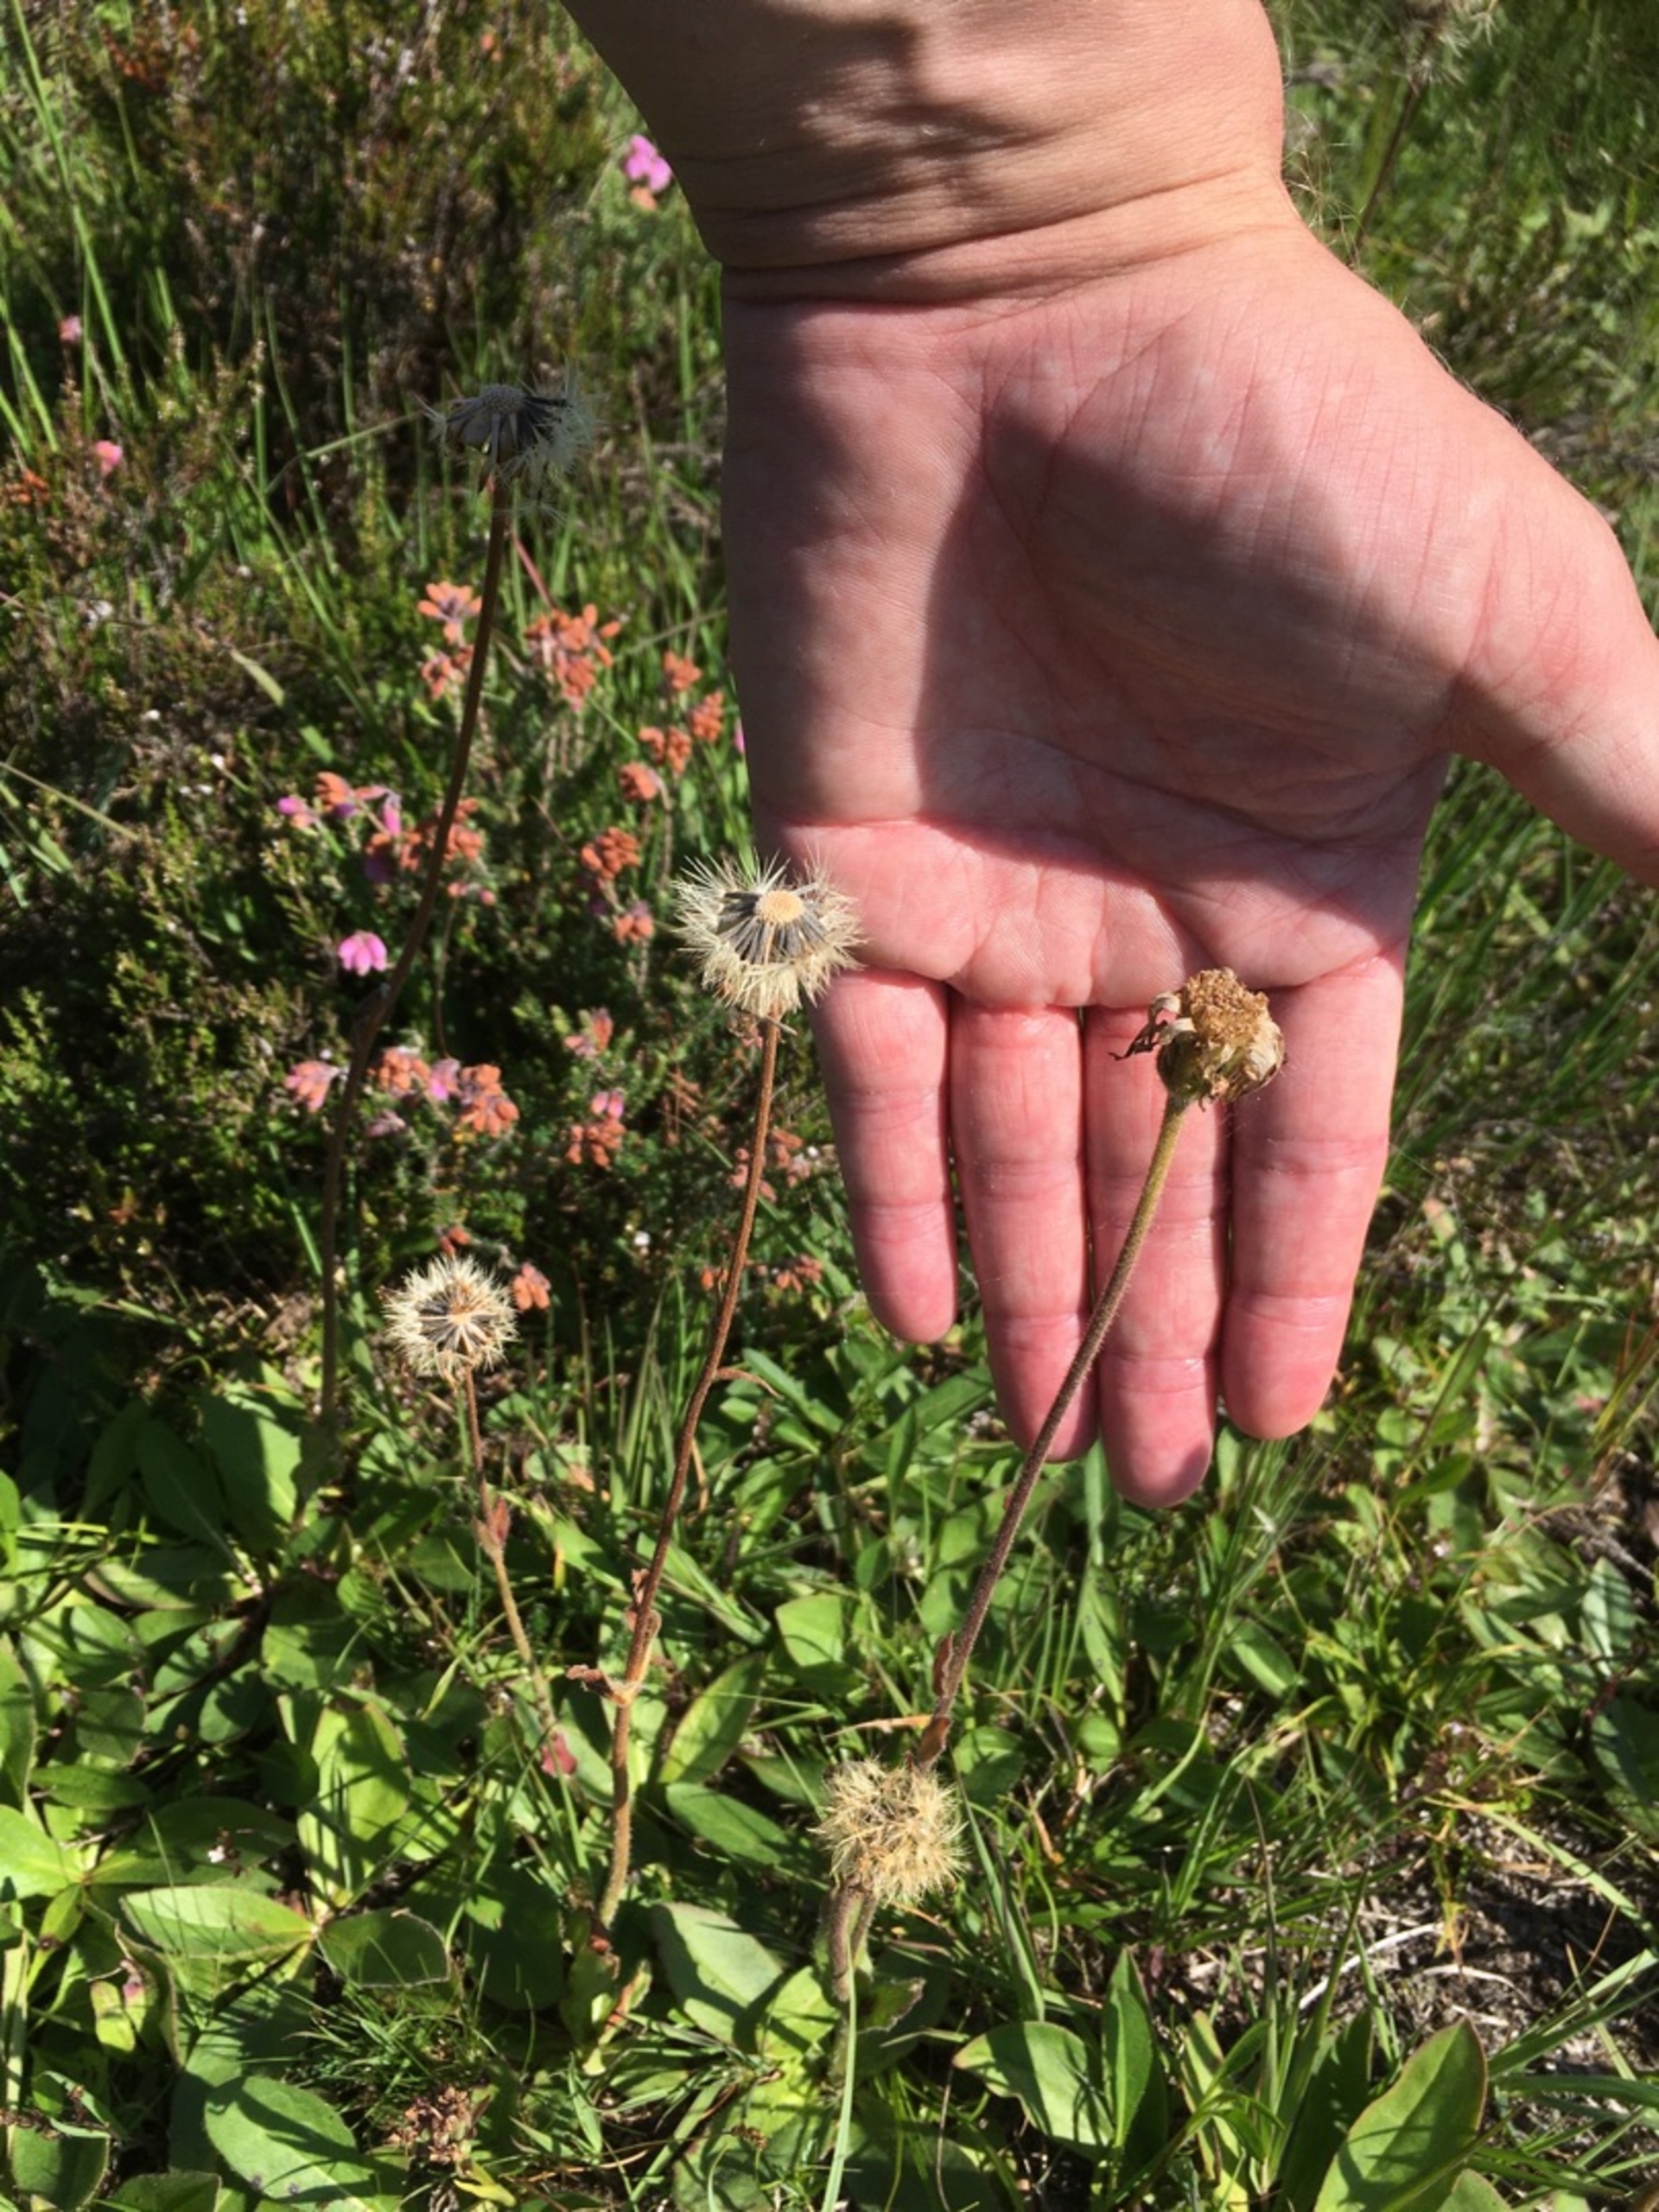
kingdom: Plantae
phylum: Tracheophyta
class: Magnoliopsida
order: Asterales
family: Asteraceae
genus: Arnica
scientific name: Arnica montana
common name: Guldblomme
